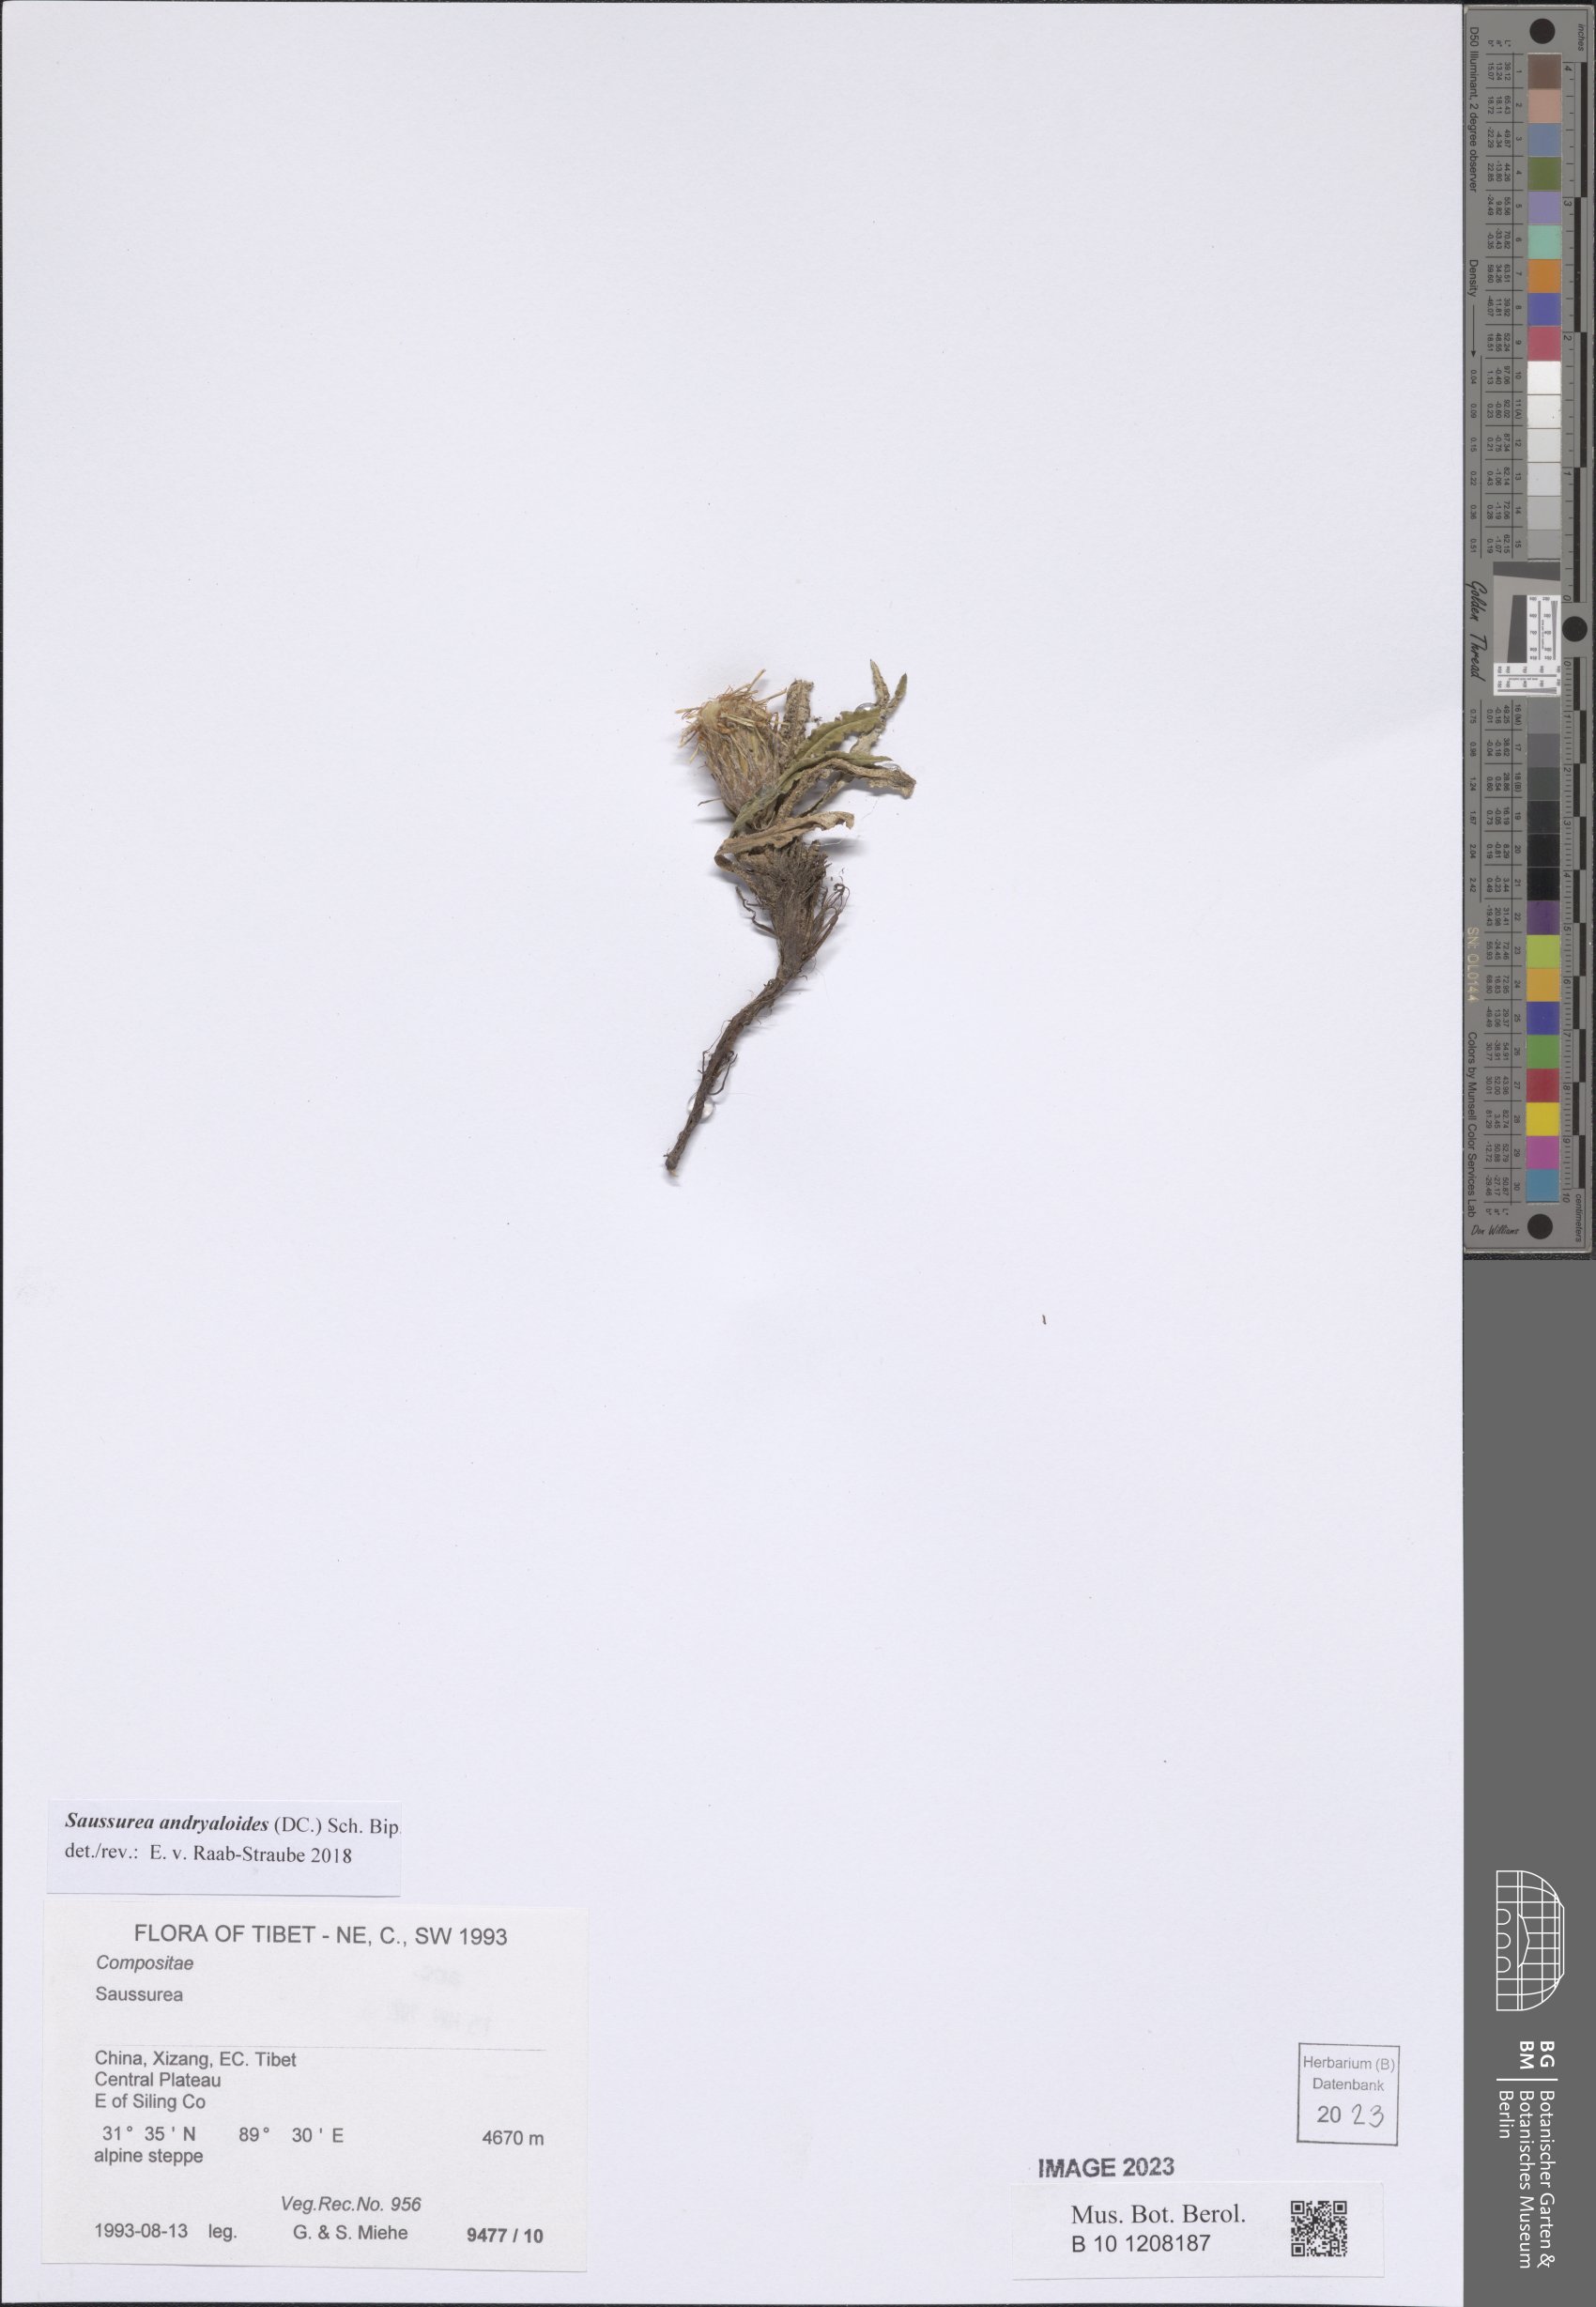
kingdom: Plantae
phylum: Tracheophyta
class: Magnoliopsida
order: Asterales
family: Asteraceae
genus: Saussurea
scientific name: Saussurea andryaloides
